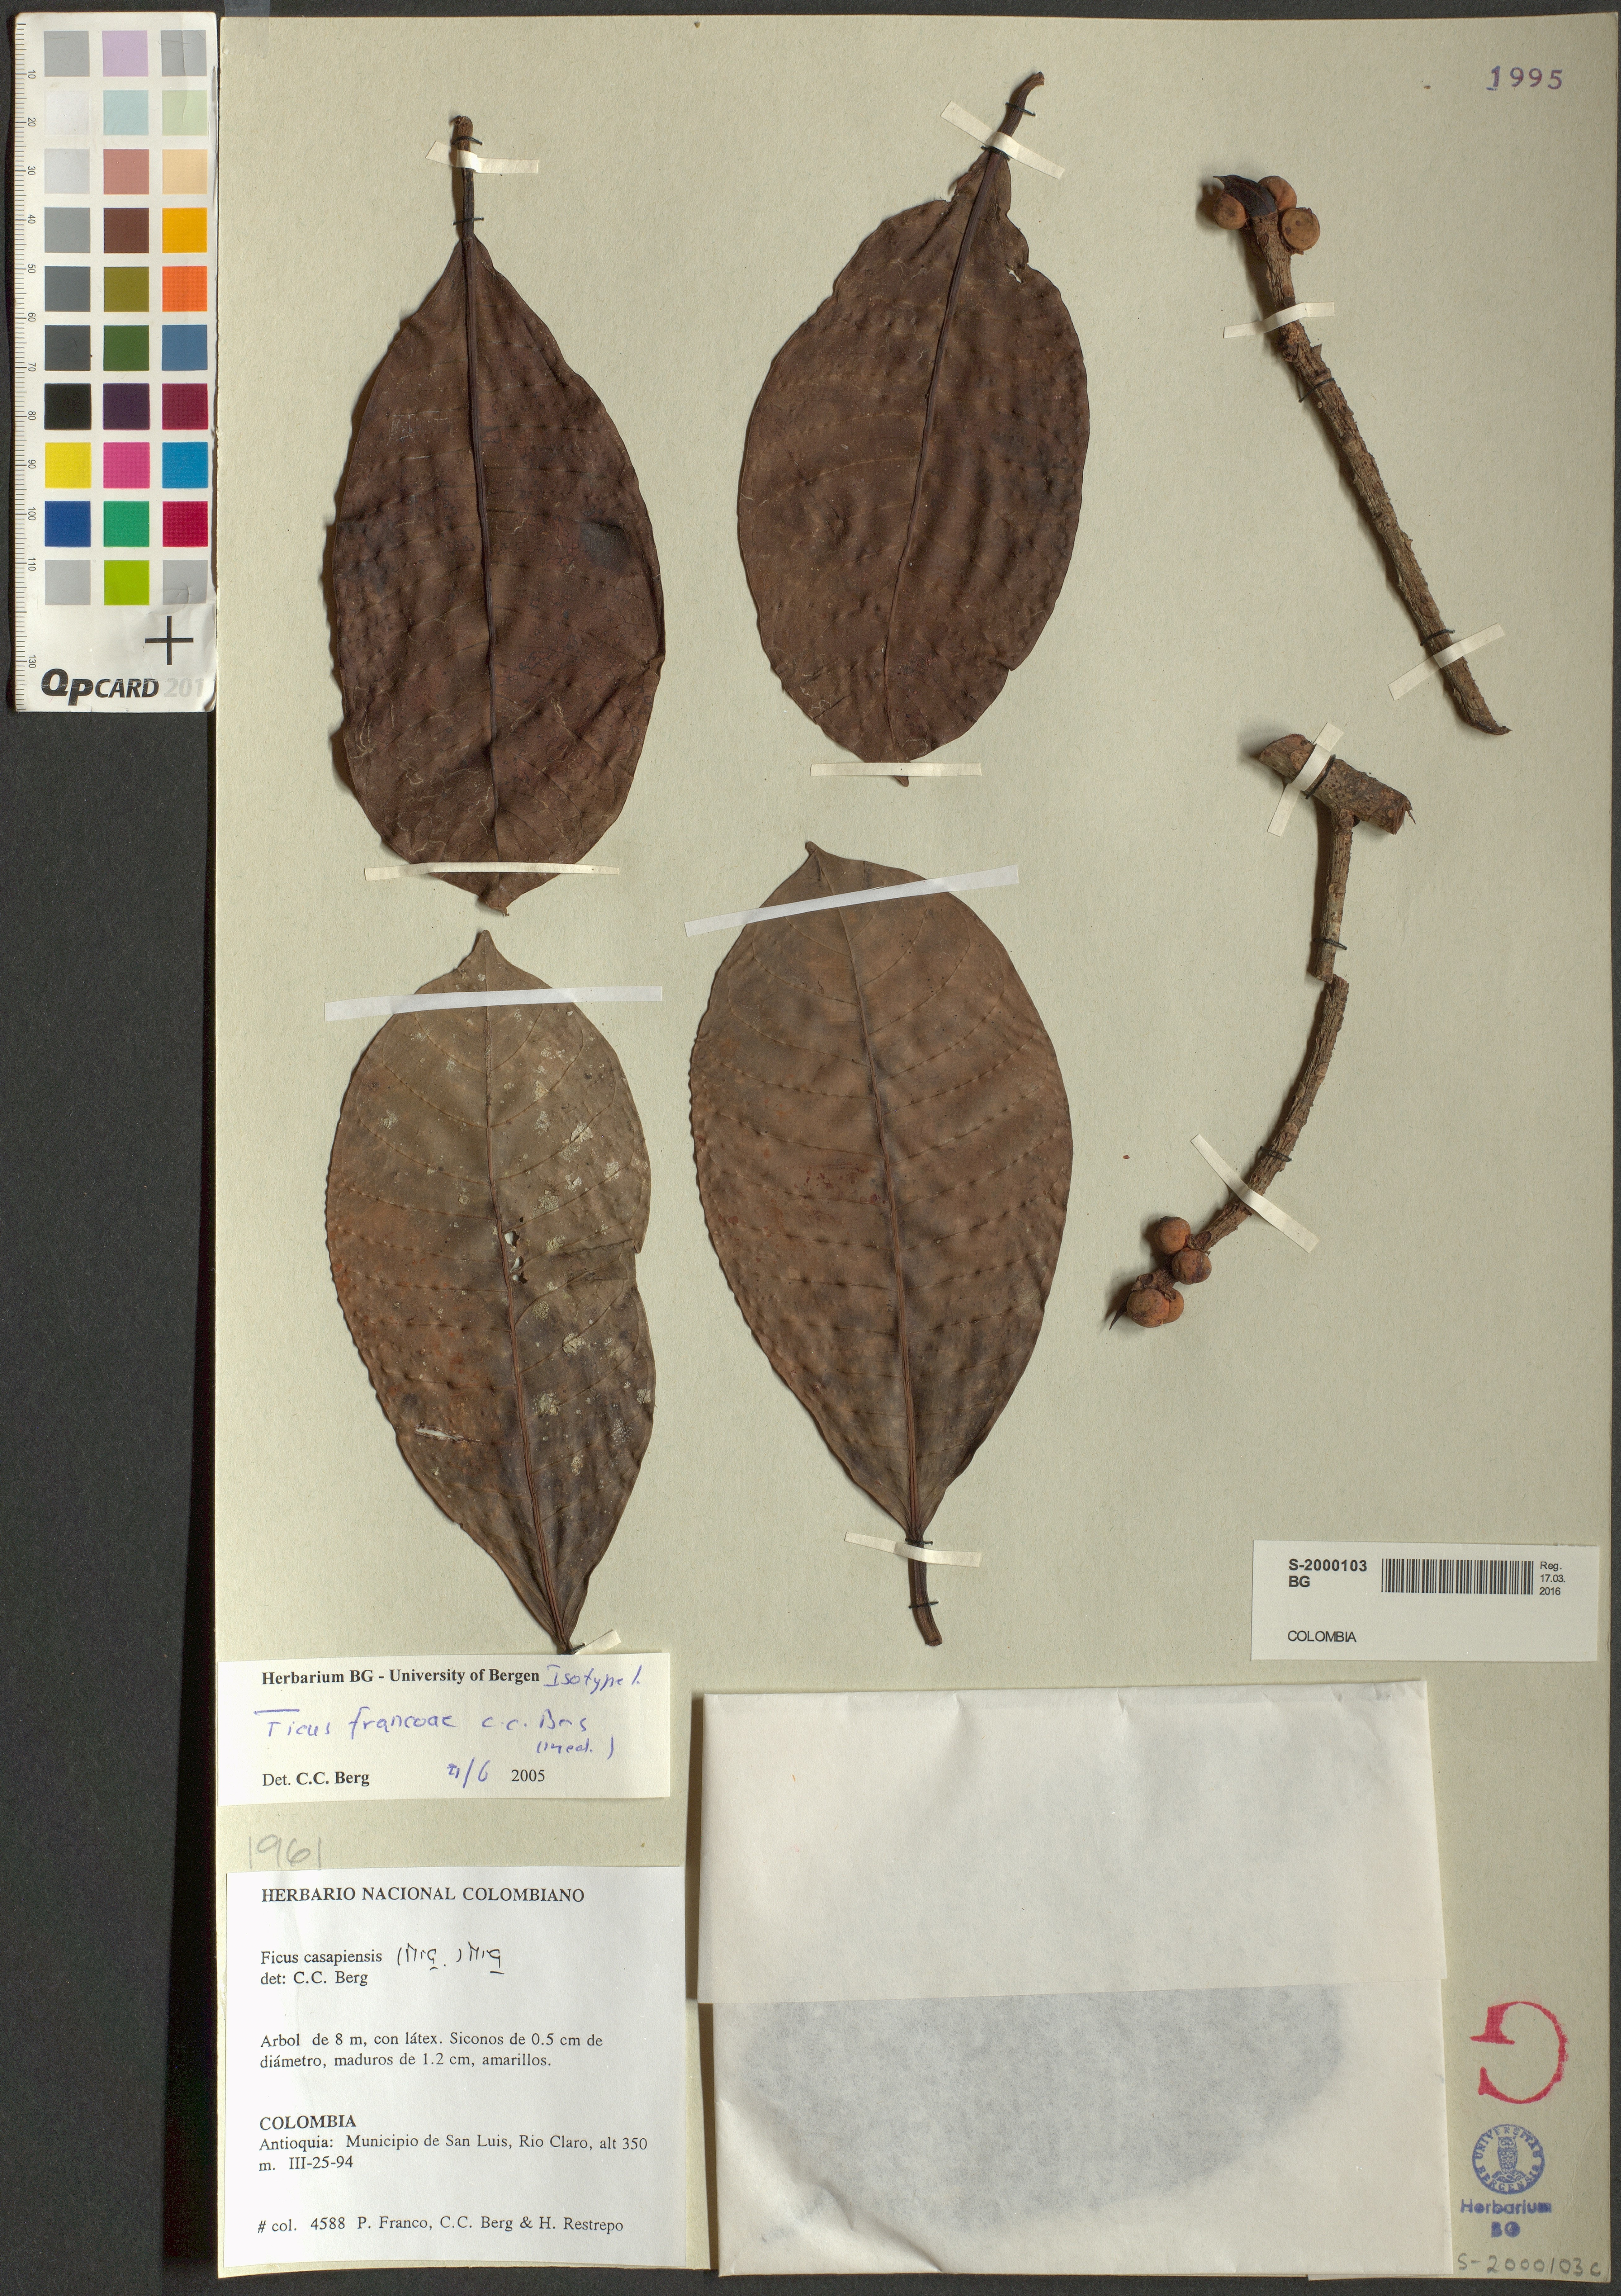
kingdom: Plantae
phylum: Tracheophyta
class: Magnoliopsida
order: Rosales
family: Moraceae
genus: Ficus
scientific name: Ficus francoae
